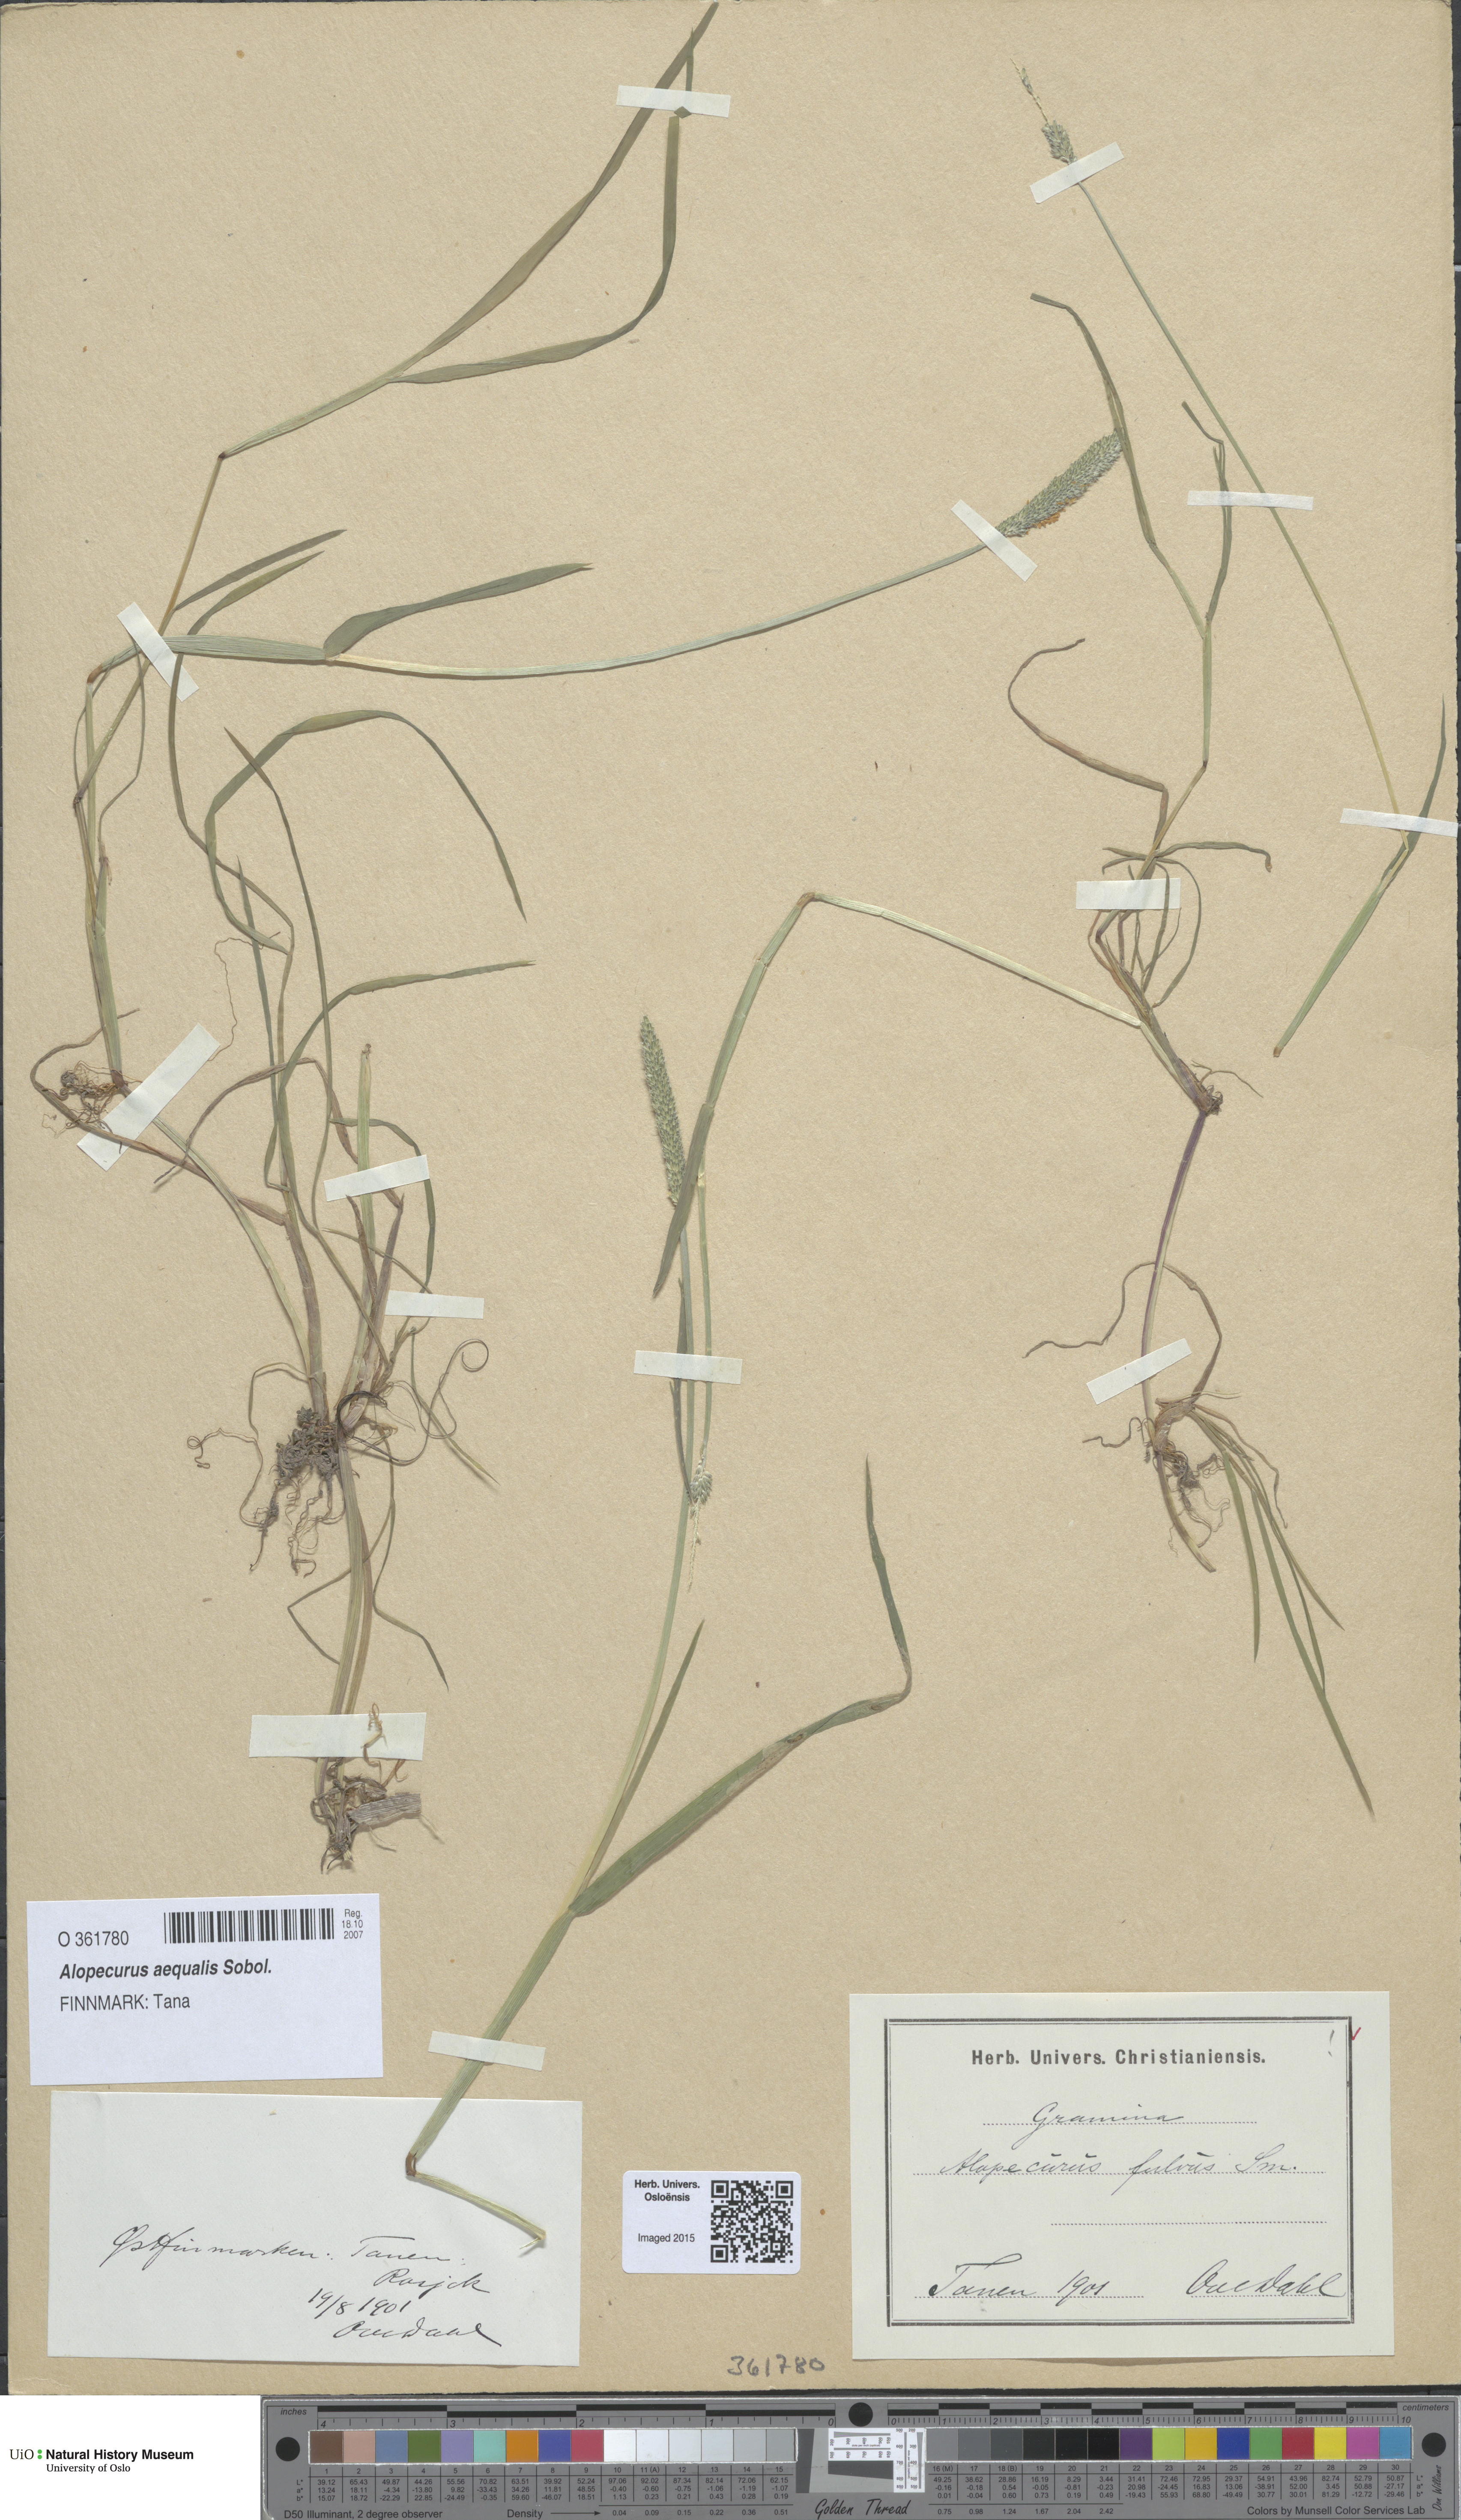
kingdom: Plantae
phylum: Tracheophyta
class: Liliopsida
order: Poales
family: Poaceae
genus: Alopecurus
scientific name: Alopecurus aequalis
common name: Orange foxtail
